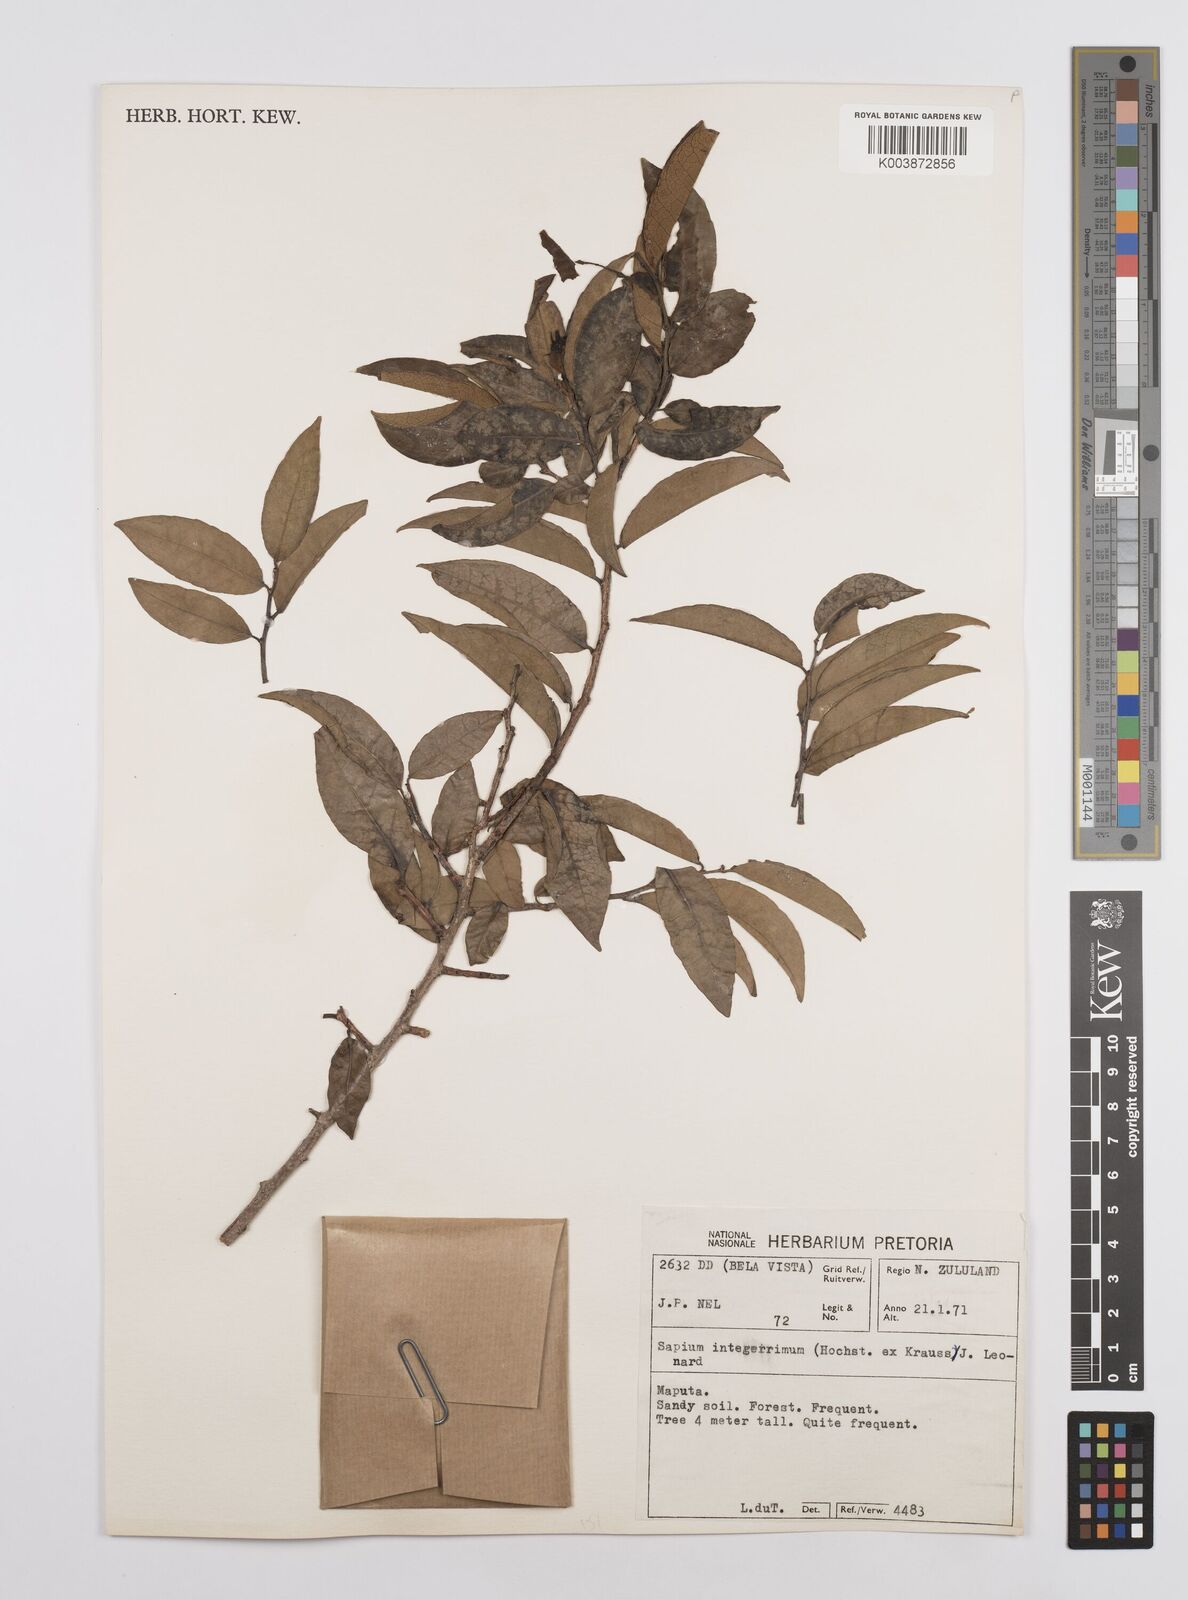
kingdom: Plantae
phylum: Tracheophyta
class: Magnoliopsida
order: Malpighiales
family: Euphorbiaceae
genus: Sclerocroton
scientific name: Sclerocroton integerrimus
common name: Duiker berry
